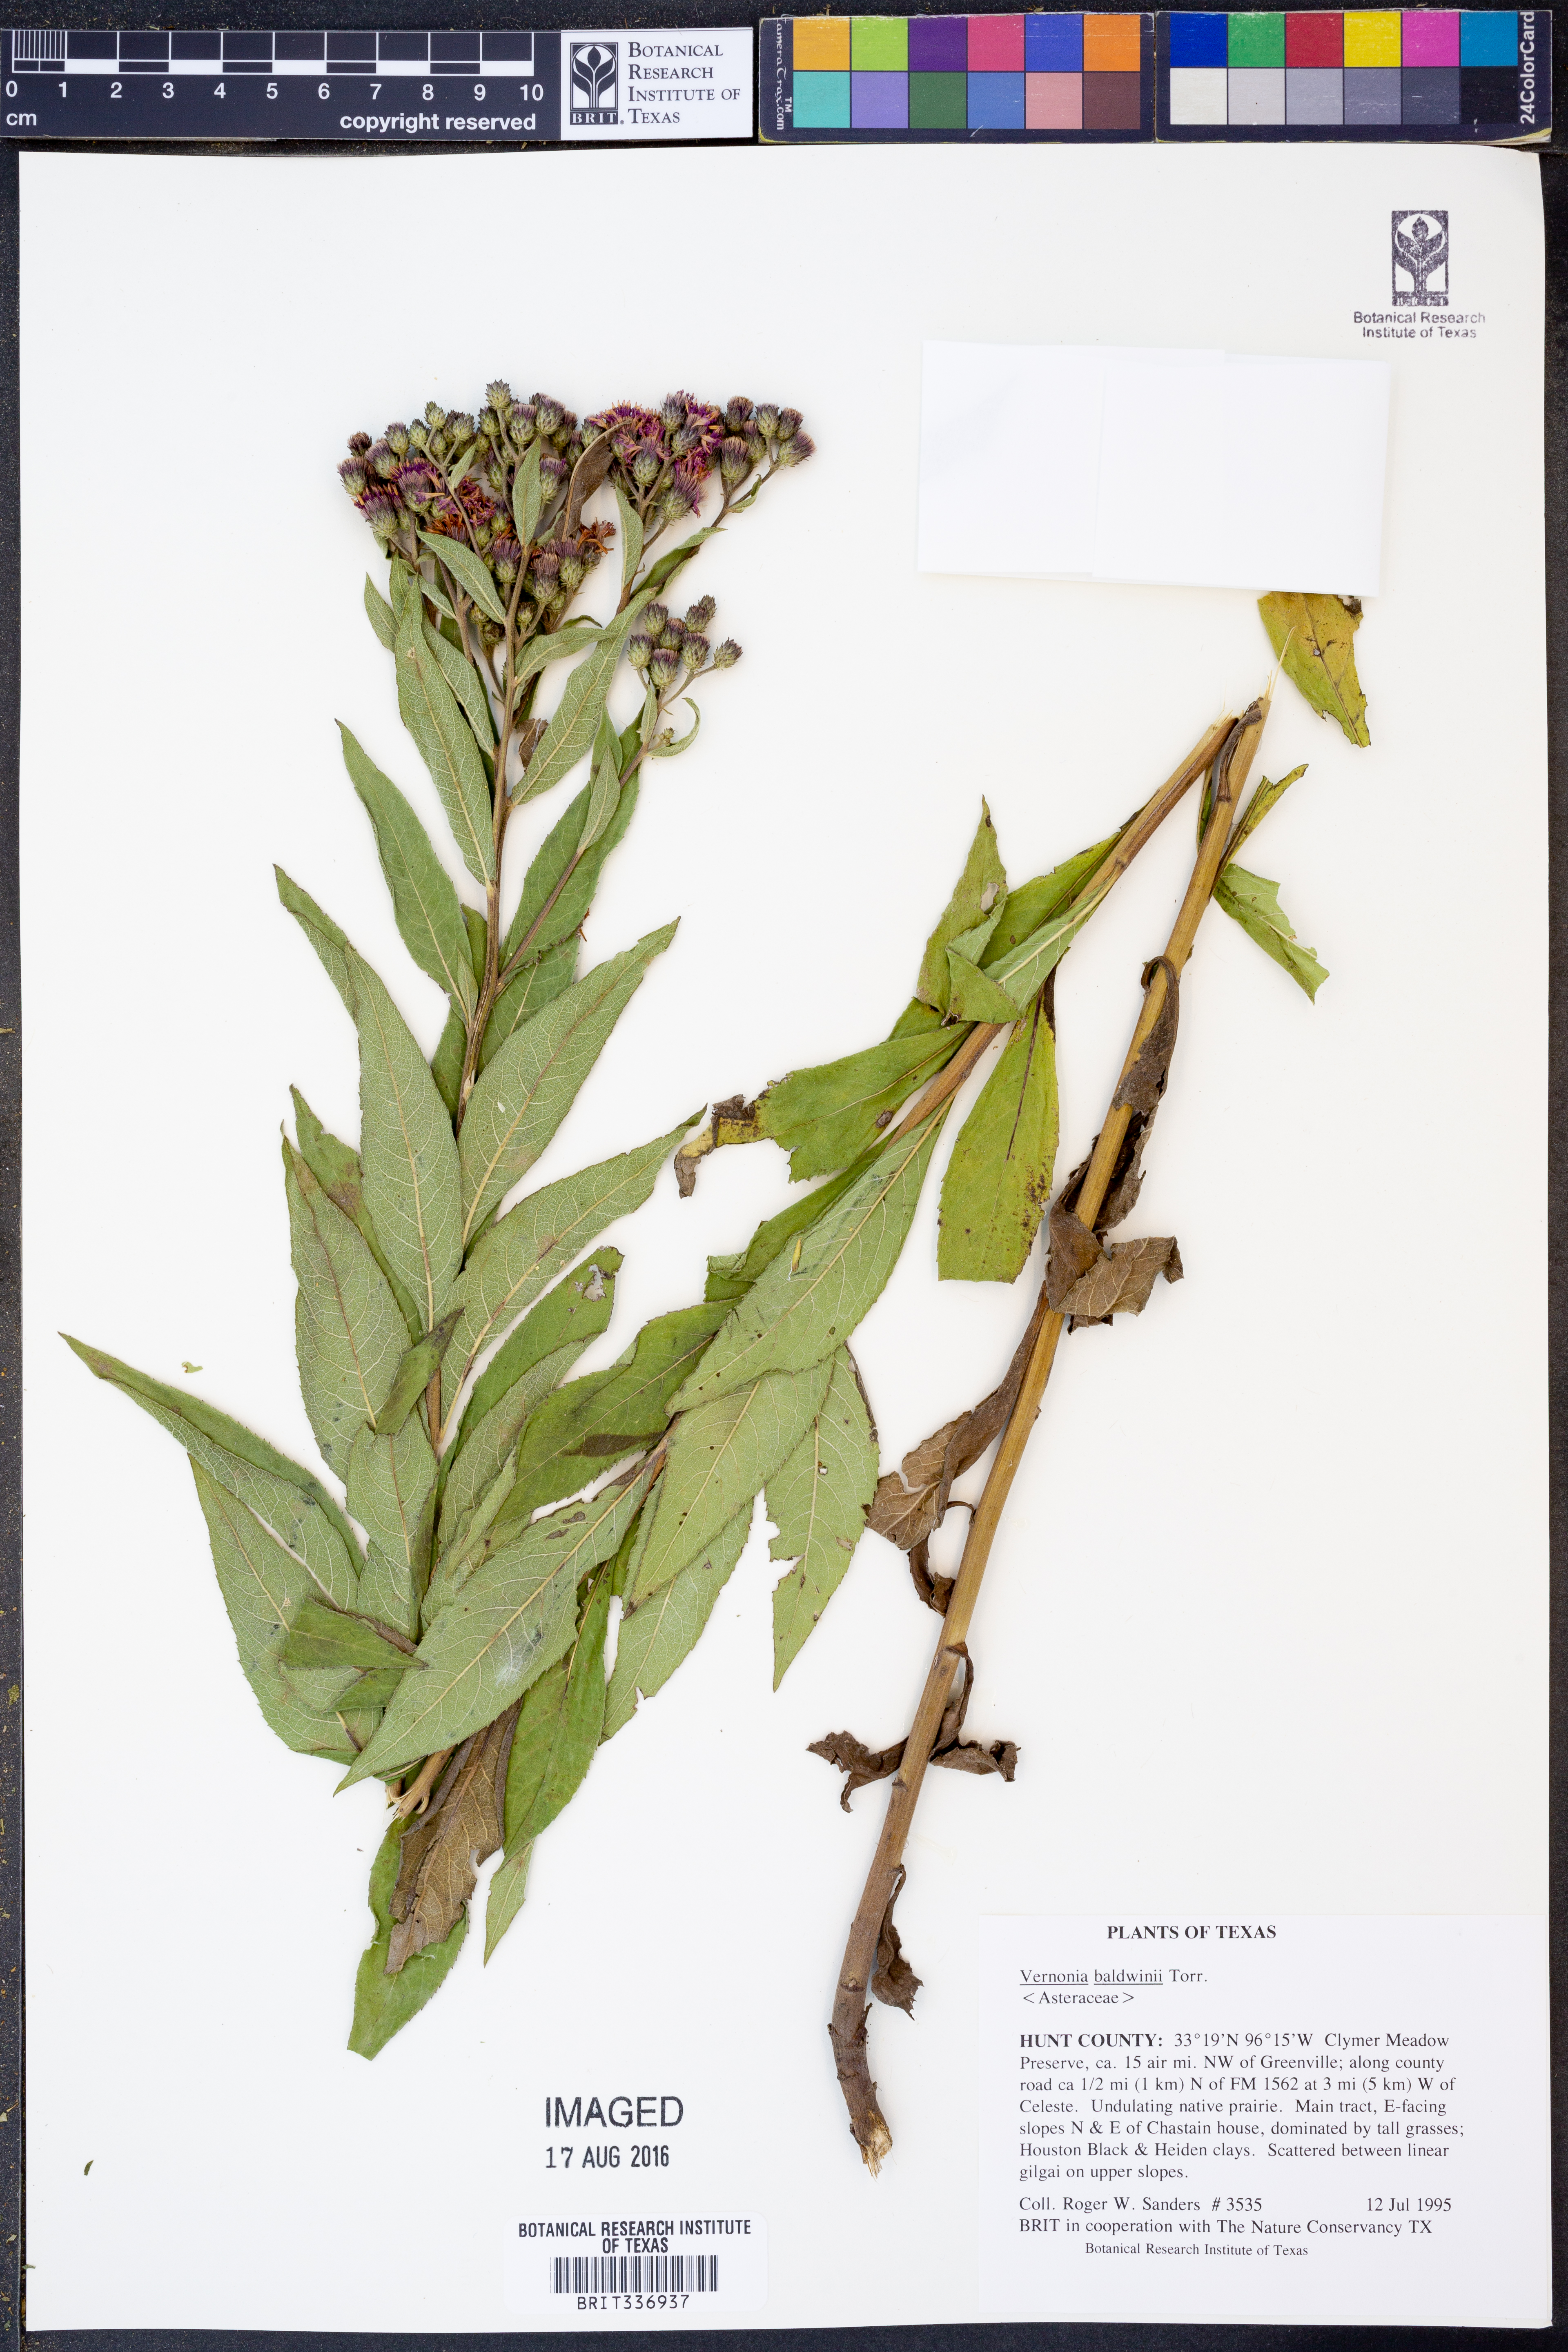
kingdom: Plantae
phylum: Tracheophyta
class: Magnoliopsida
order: Asterales
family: Asteraceae
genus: Vernonia
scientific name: Vernonia baldwinii
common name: Western ironweed
